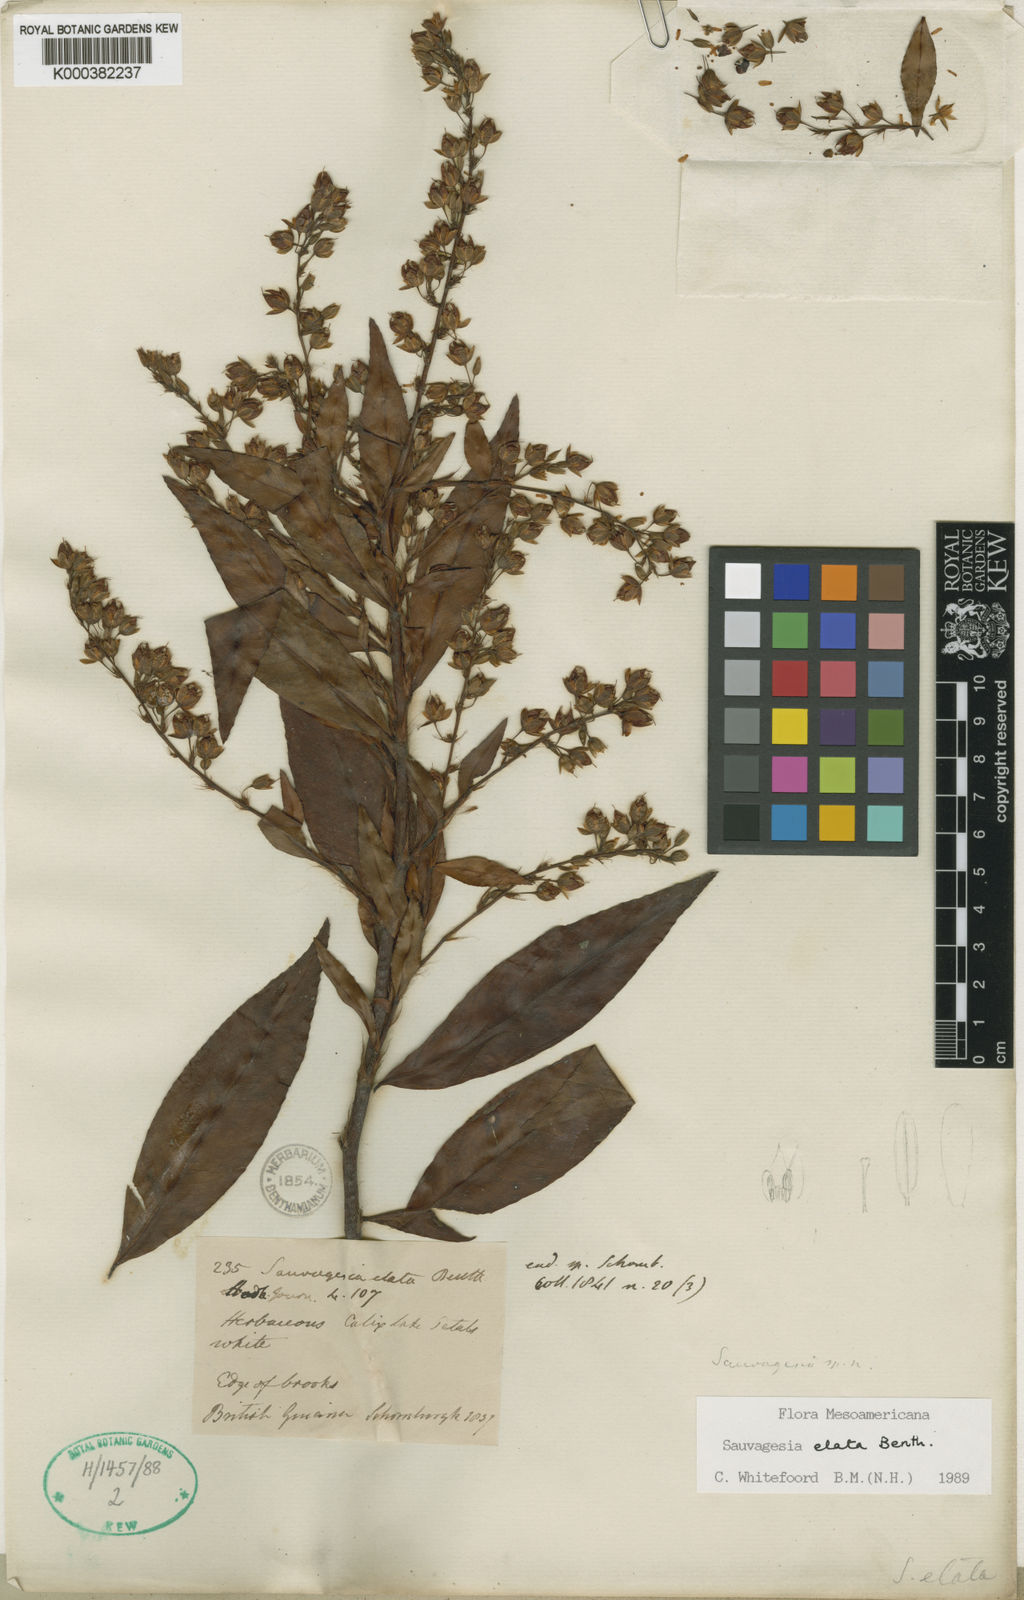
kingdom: Plantae
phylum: Tracheophyta
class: Magnoliopsida
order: Malpighiales
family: Ochnaceae
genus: Sauvagesia
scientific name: Sauvagesia elata
